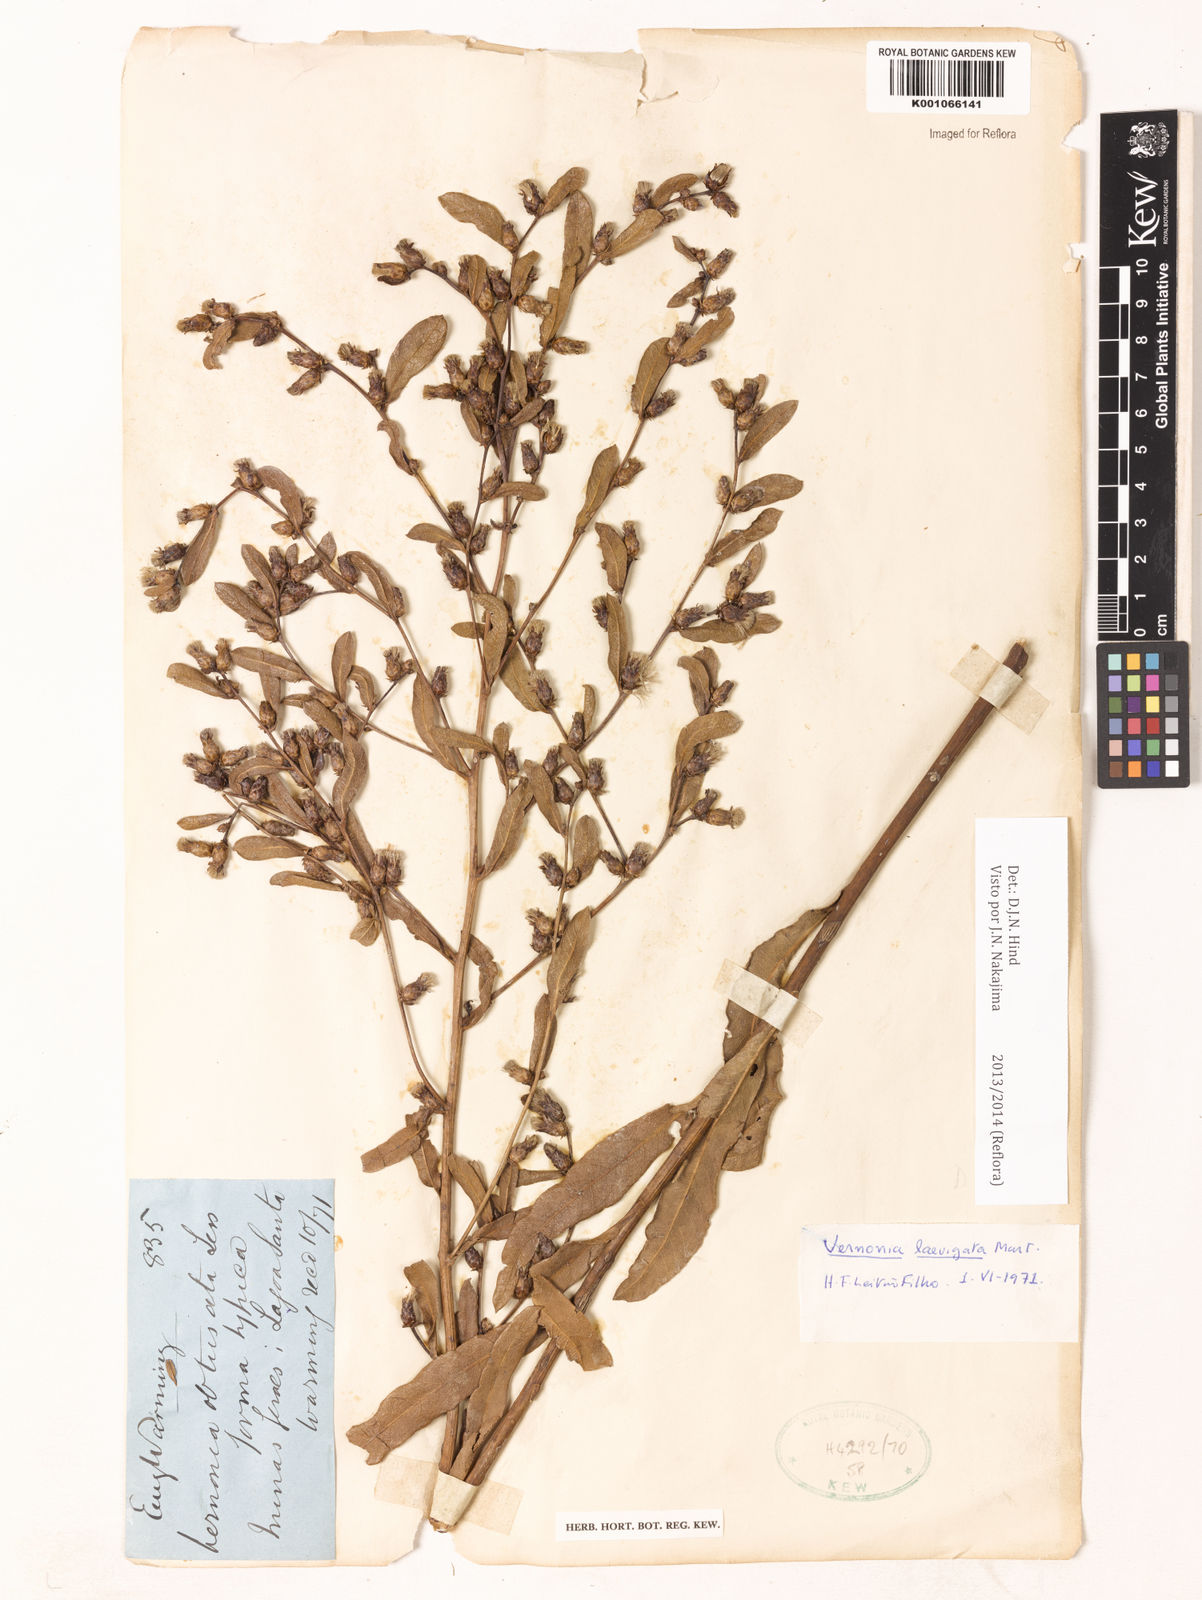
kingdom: Plantae
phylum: Tracheophyta
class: Magnoliopsida
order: Asterales
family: Asteraceae
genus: Lessingianthus
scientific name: Lessingianthus laevigatus
